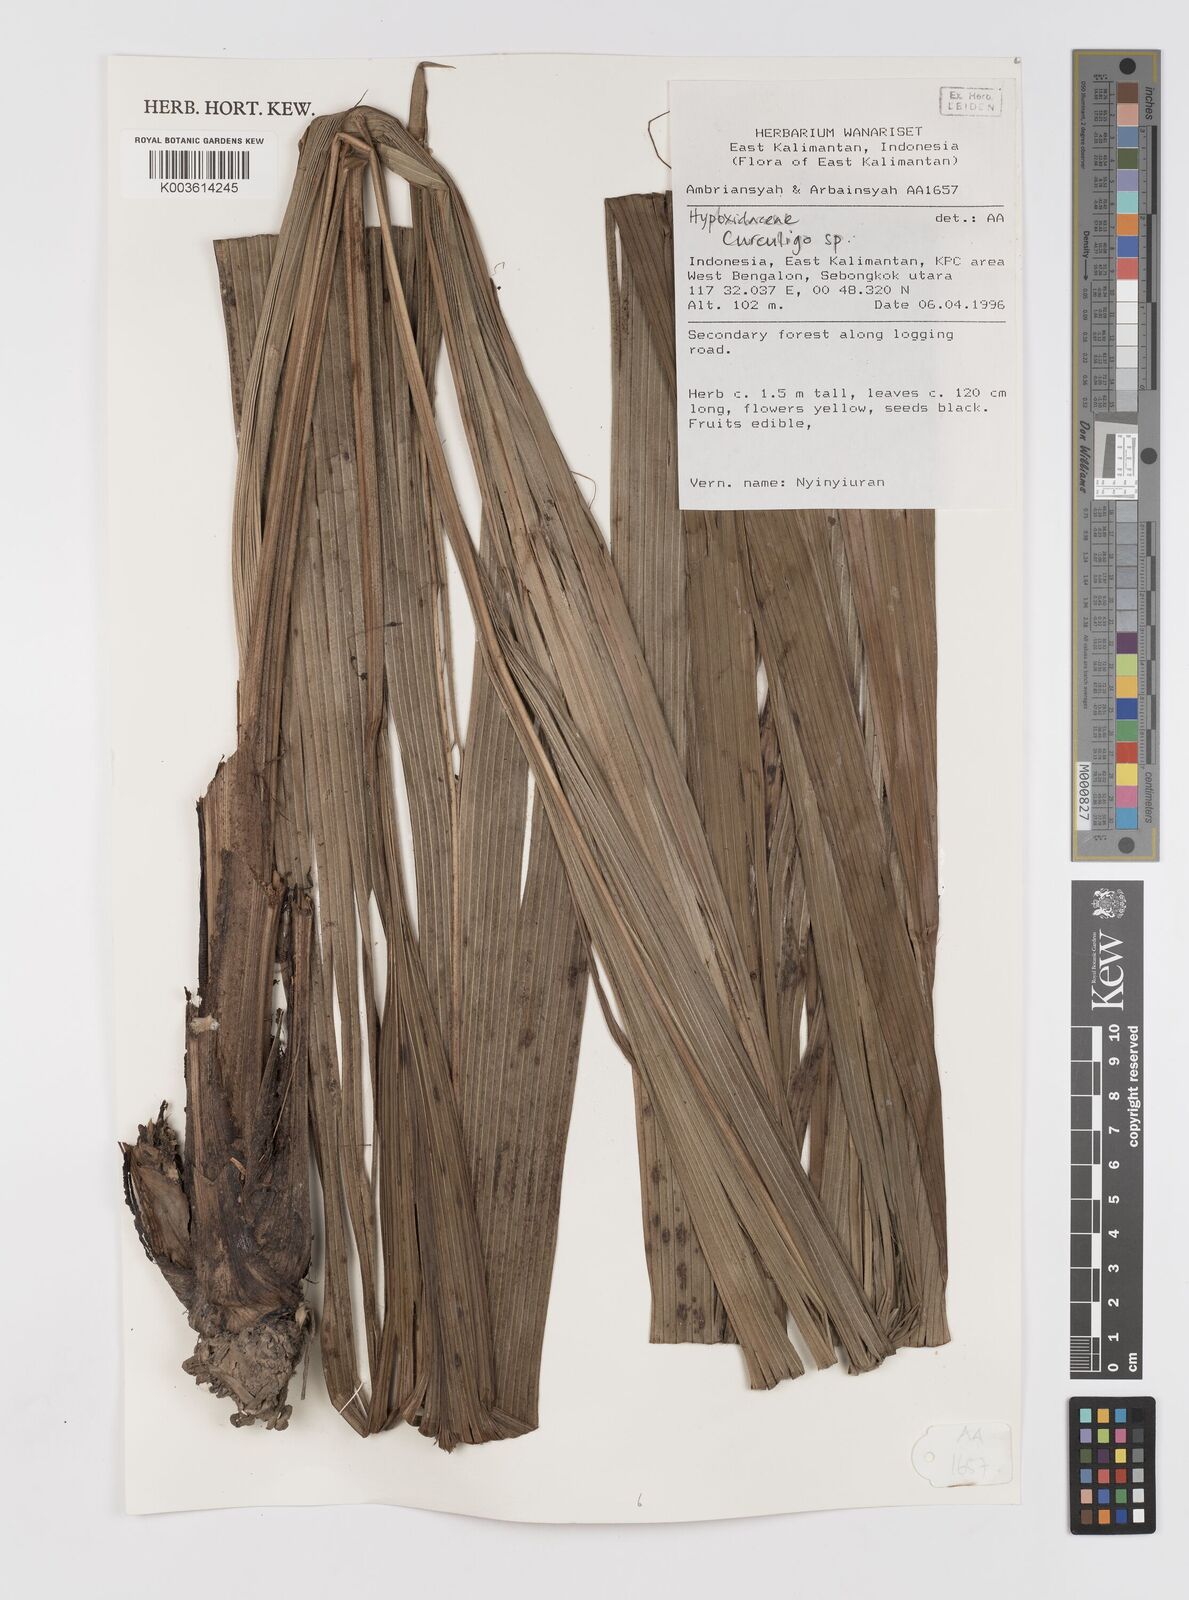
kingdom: Plantae
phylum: Tracheophyta
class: Liliopsida
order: Asparagales
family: Hypoxidaceae
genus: Curculigo
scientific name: Curculigo
